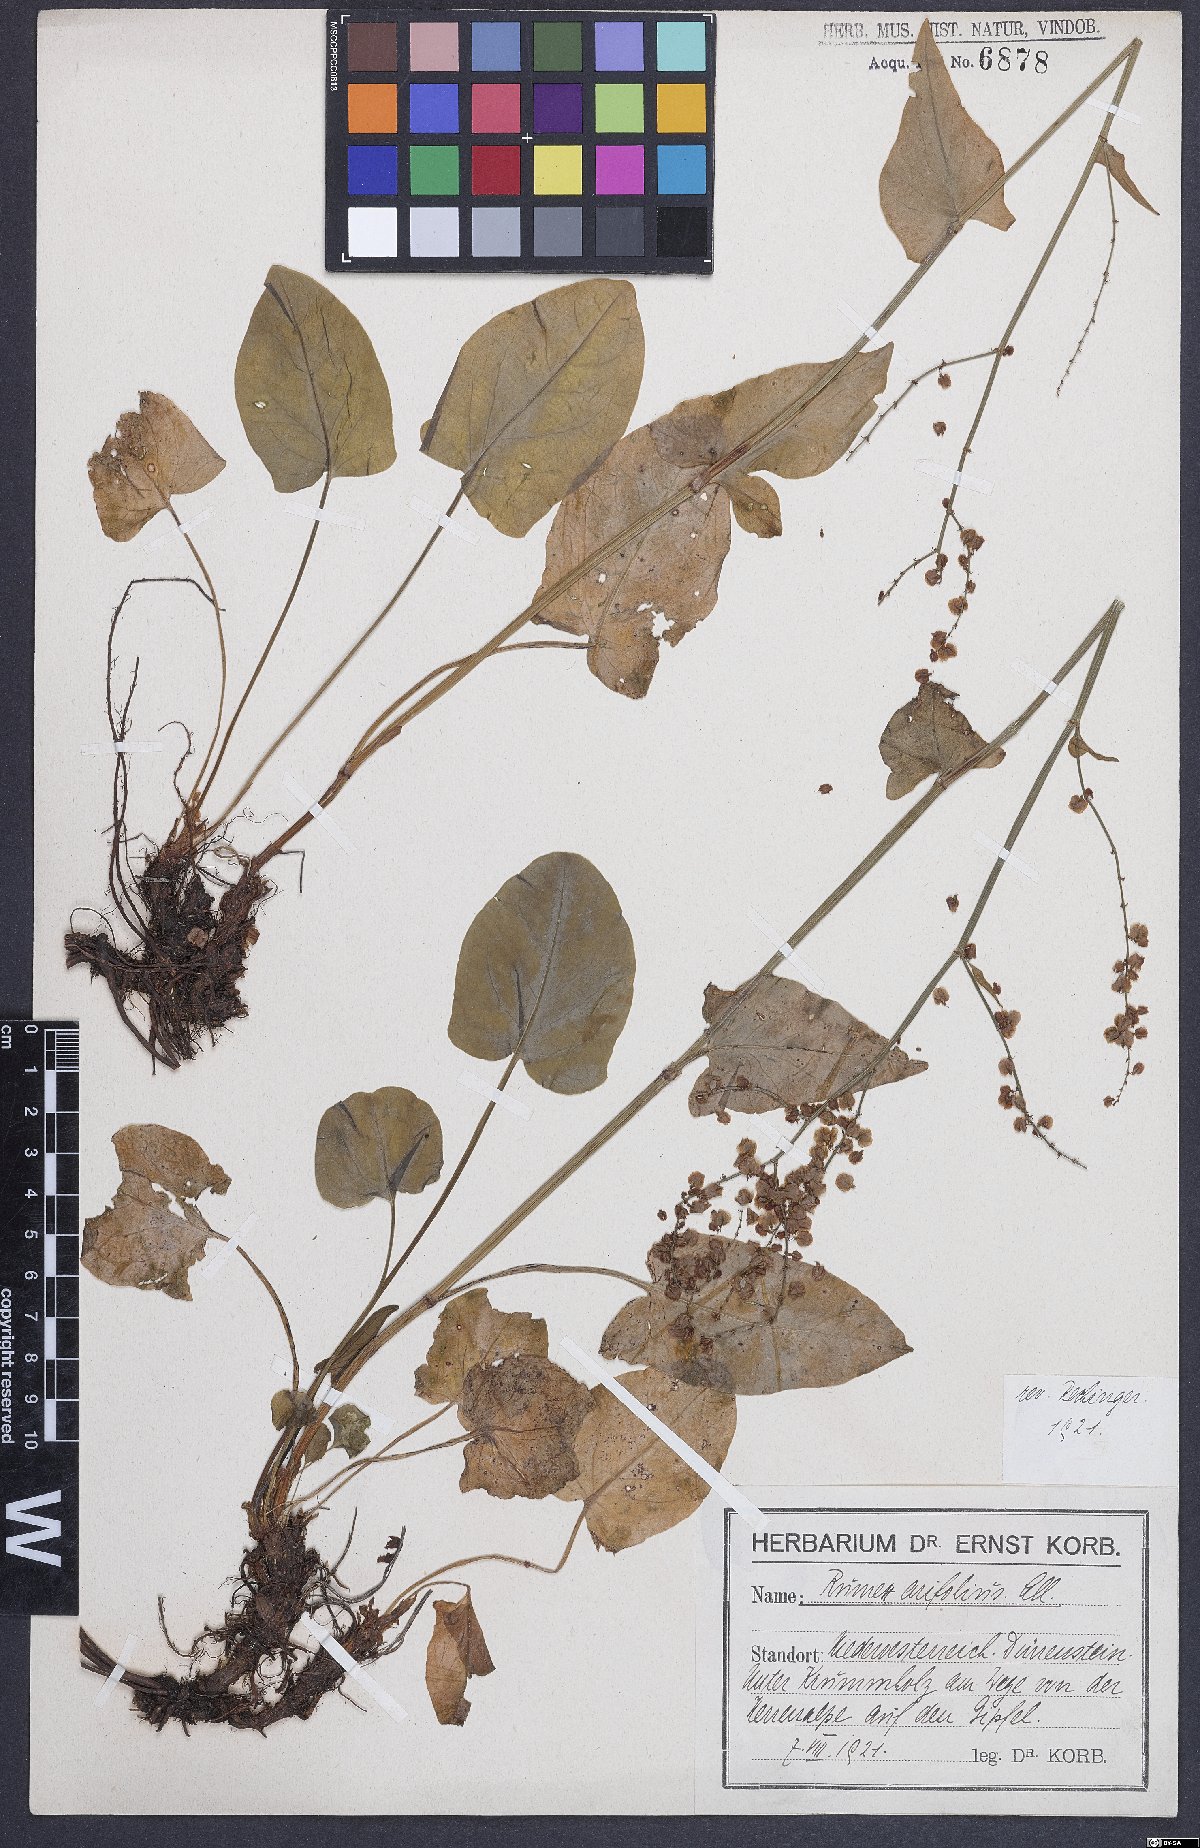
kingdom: Plantae
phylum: Tracheophyta
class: Magnoliopsida
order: Caryophyllales
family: Polygonaceae
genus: Rumex
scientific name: Rumex arifolius
